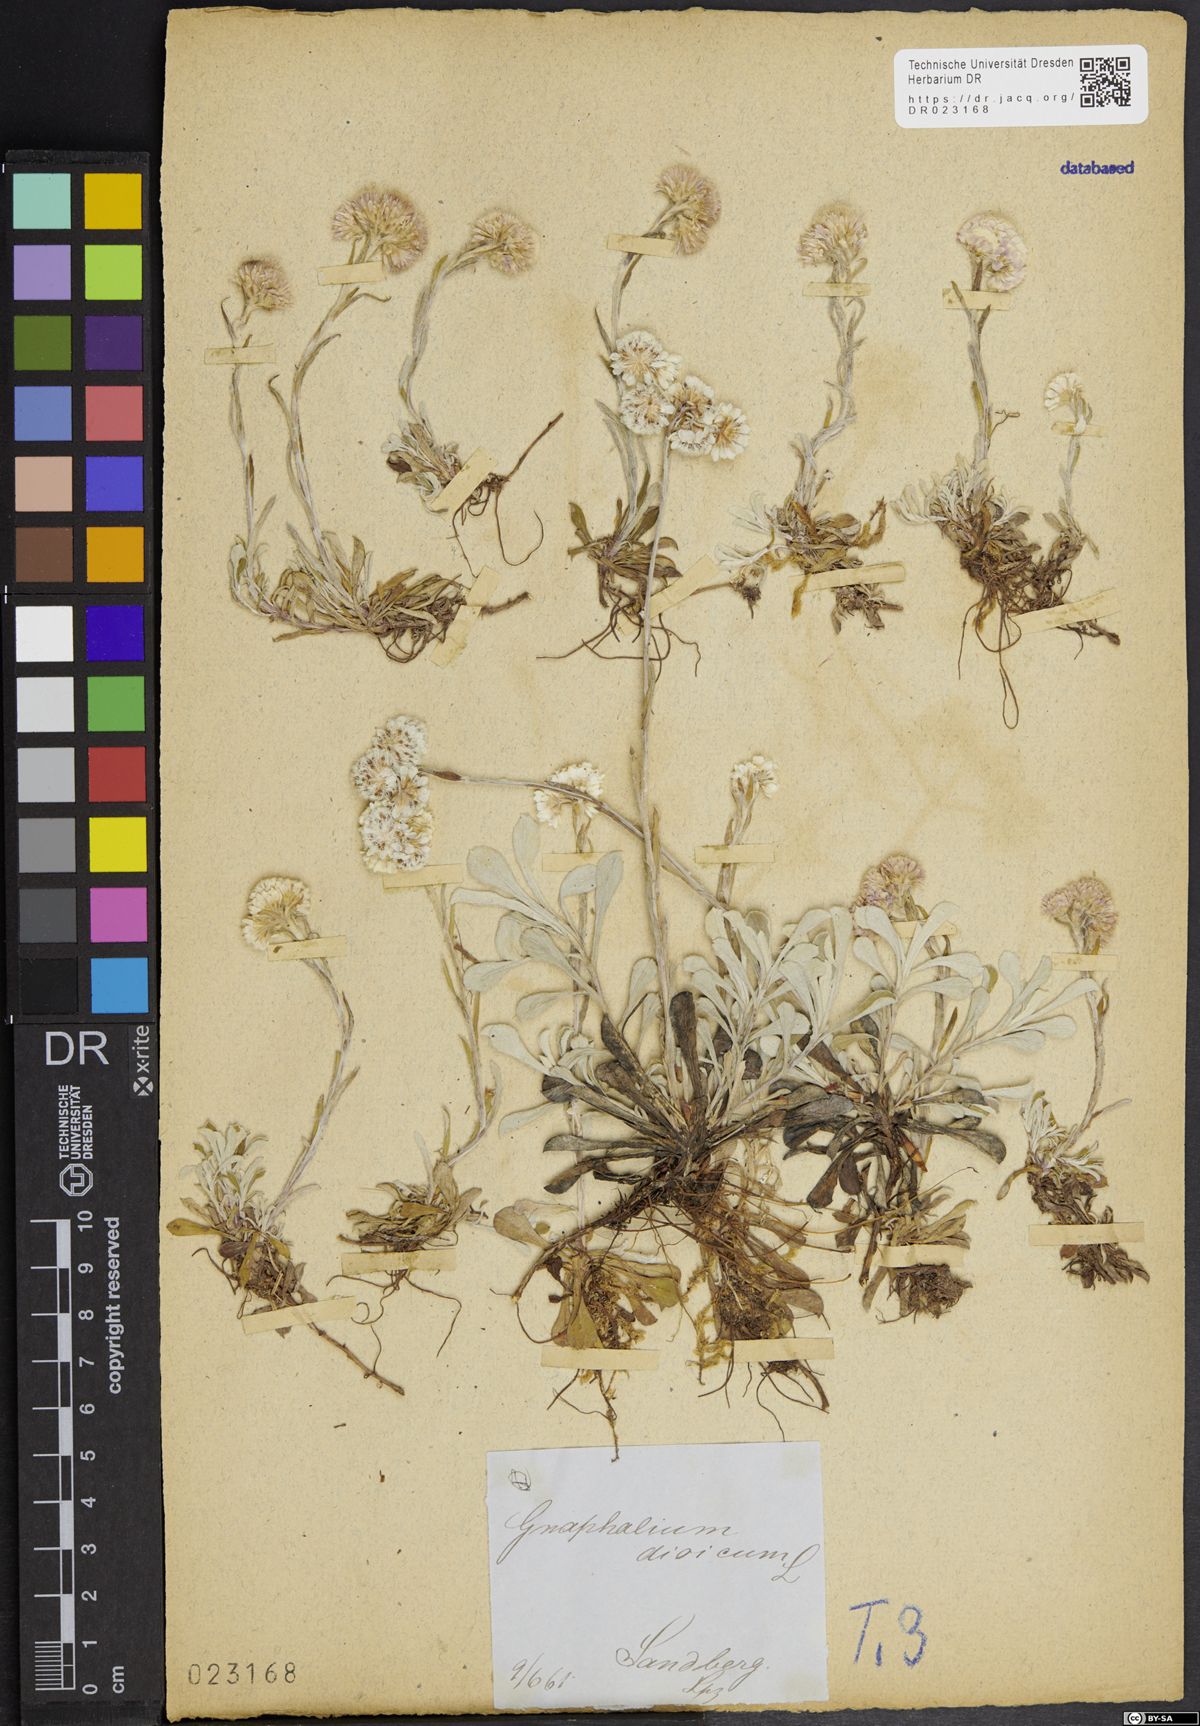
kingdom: Plantae
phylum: Tracheophyta
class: Magnoliopsida
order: Asterales
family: Asteraceae
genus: Antennaria
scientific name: Antennaria dioica
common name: Mountain everlasting
